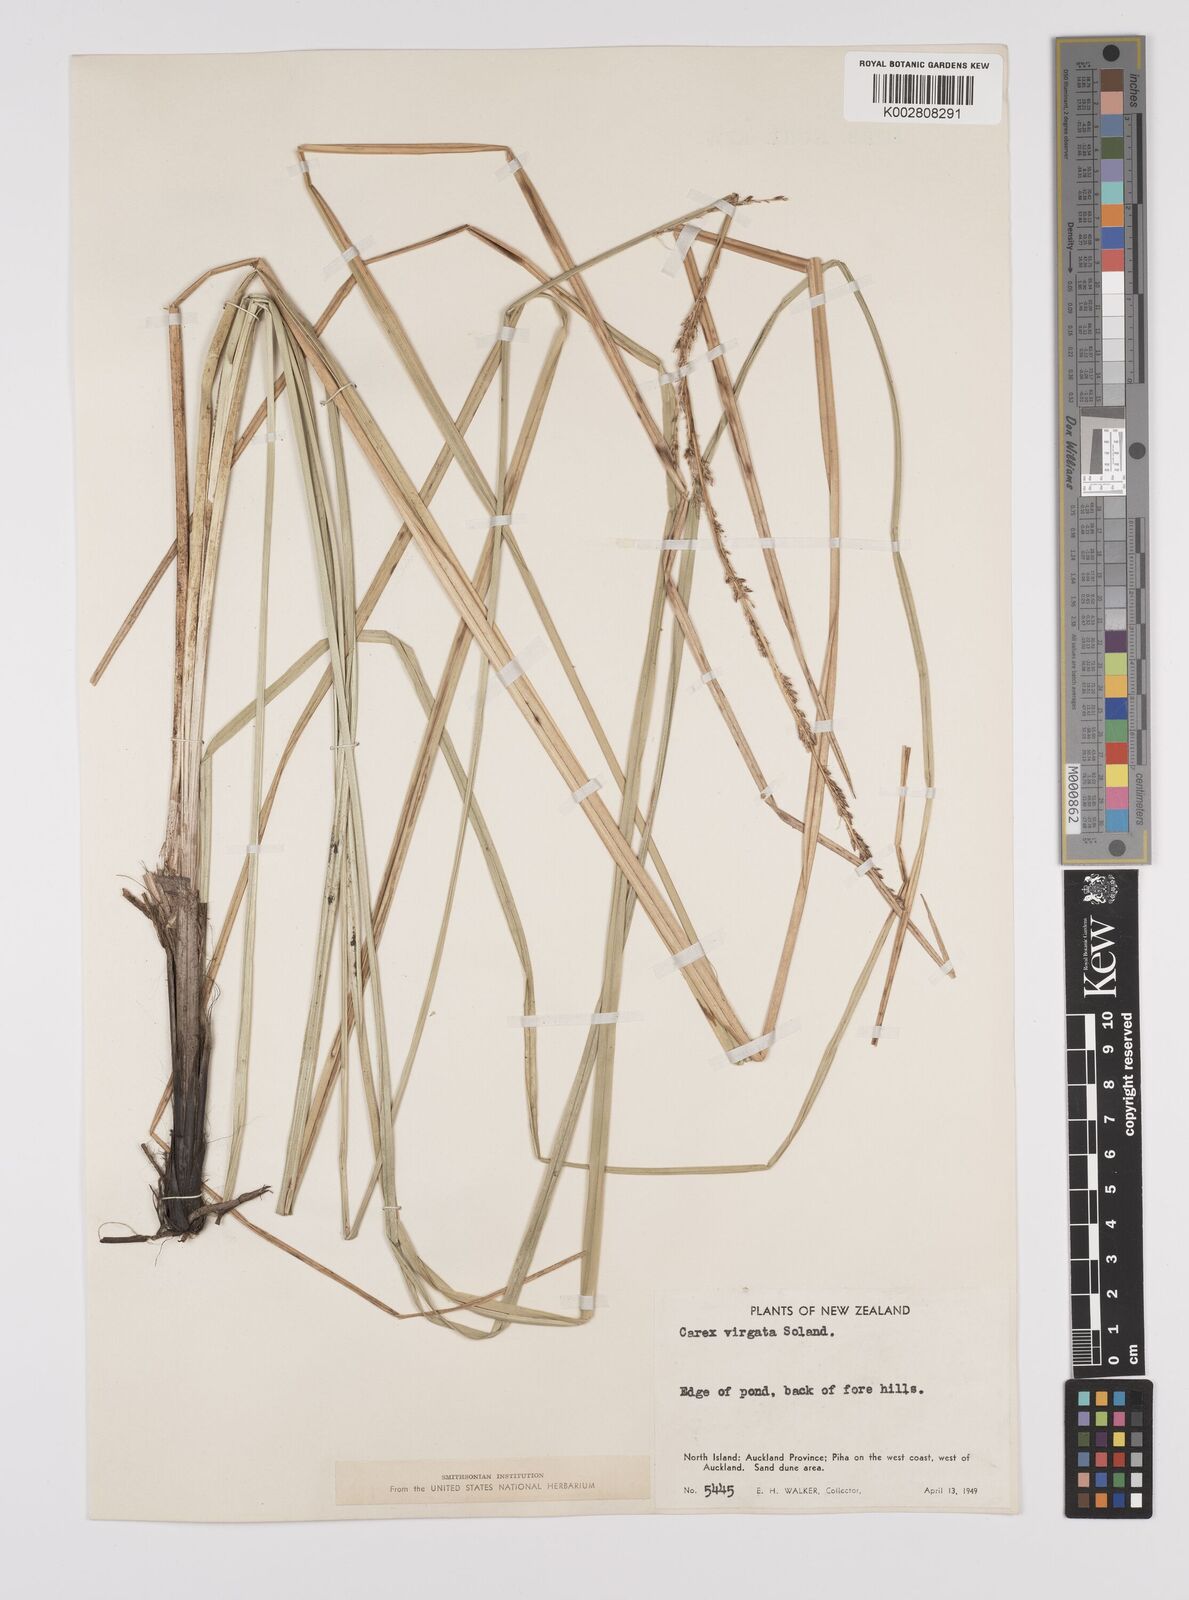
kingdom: Plantae
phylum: Tracheophyta
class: Liliopsida
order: Poales
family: Cyperaceae
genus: Carex
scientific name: Carex appressa
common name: Tussock sedge
